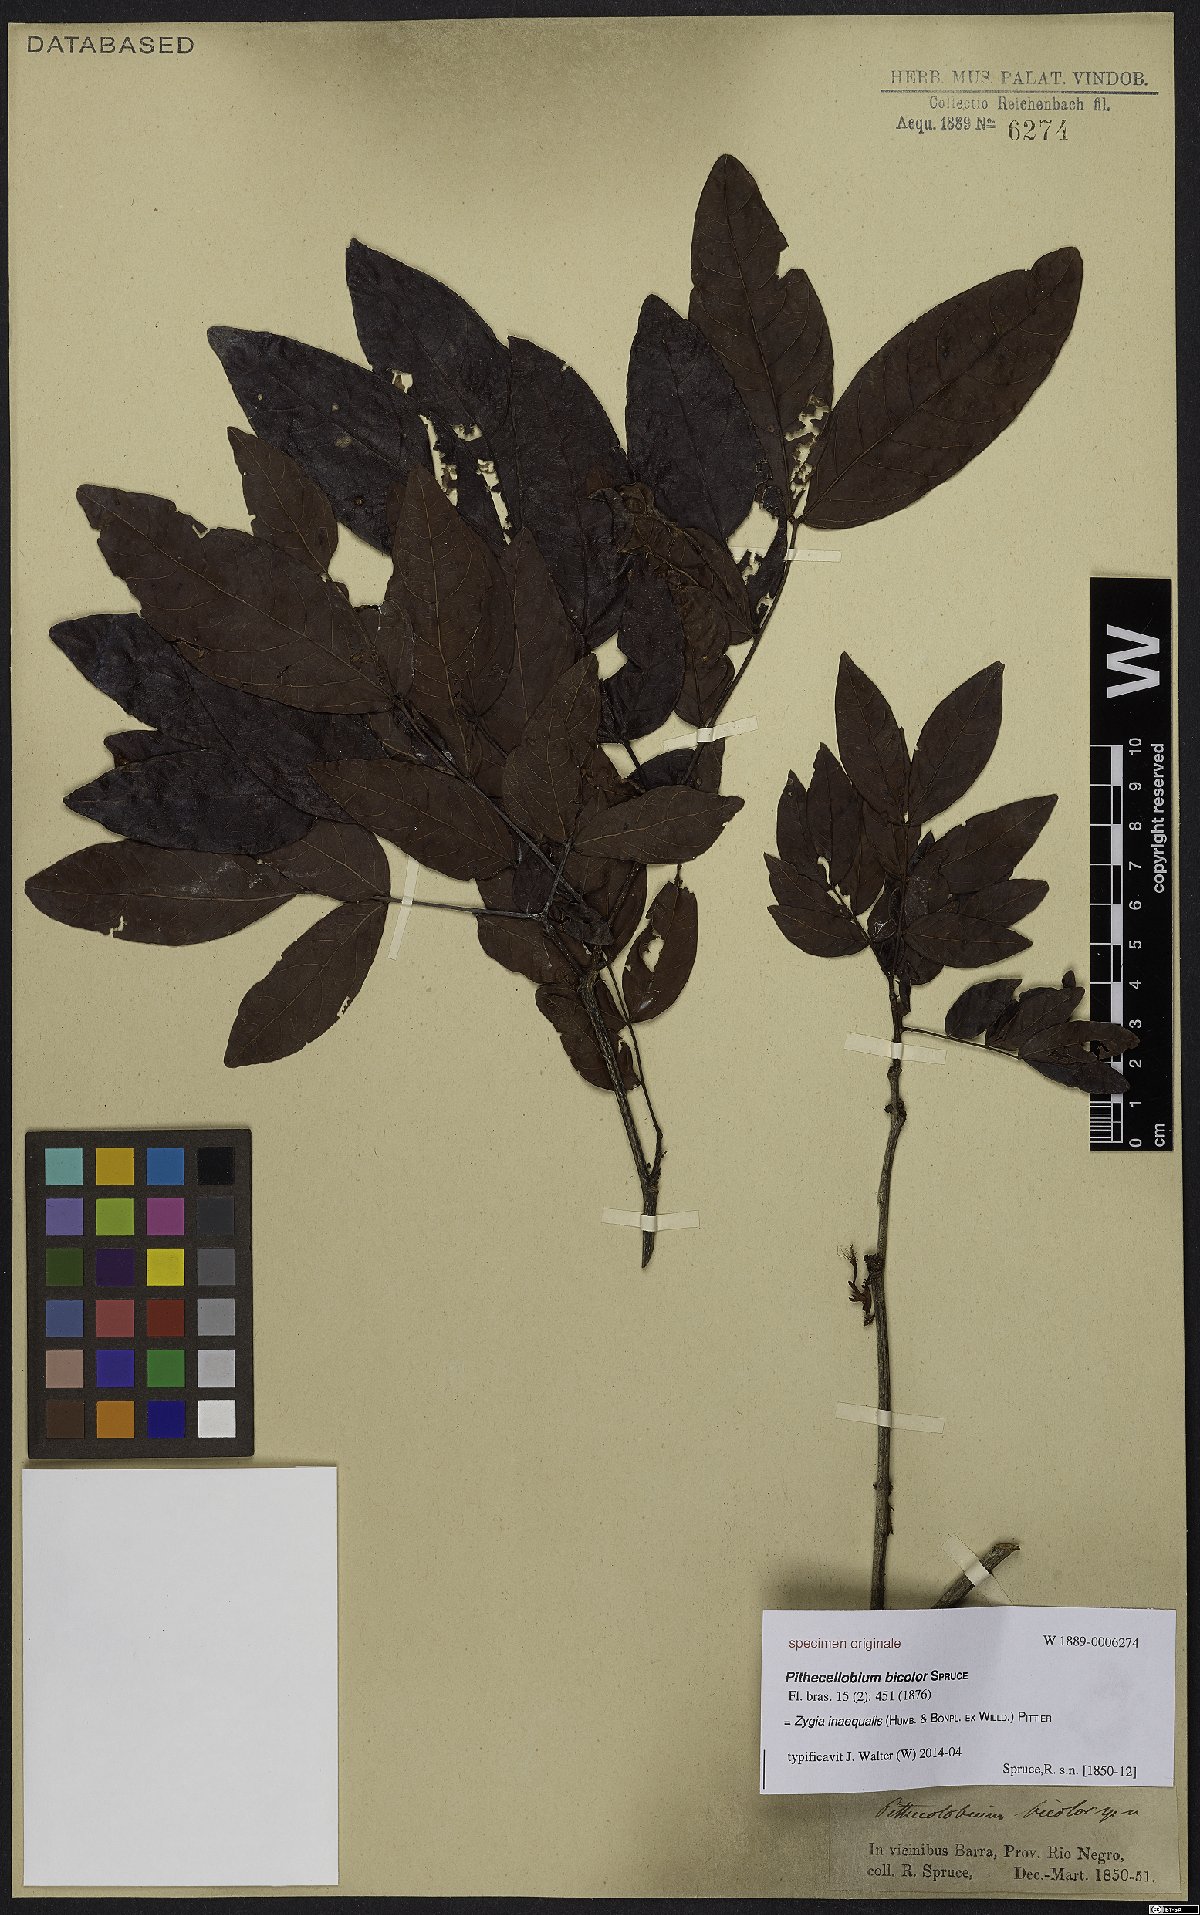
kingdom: Plantae
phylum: Tracheophyta
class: Magnoliopsida
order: Fabales
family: Fabaceae
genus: Zygia
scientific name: Zygia inaequalis
